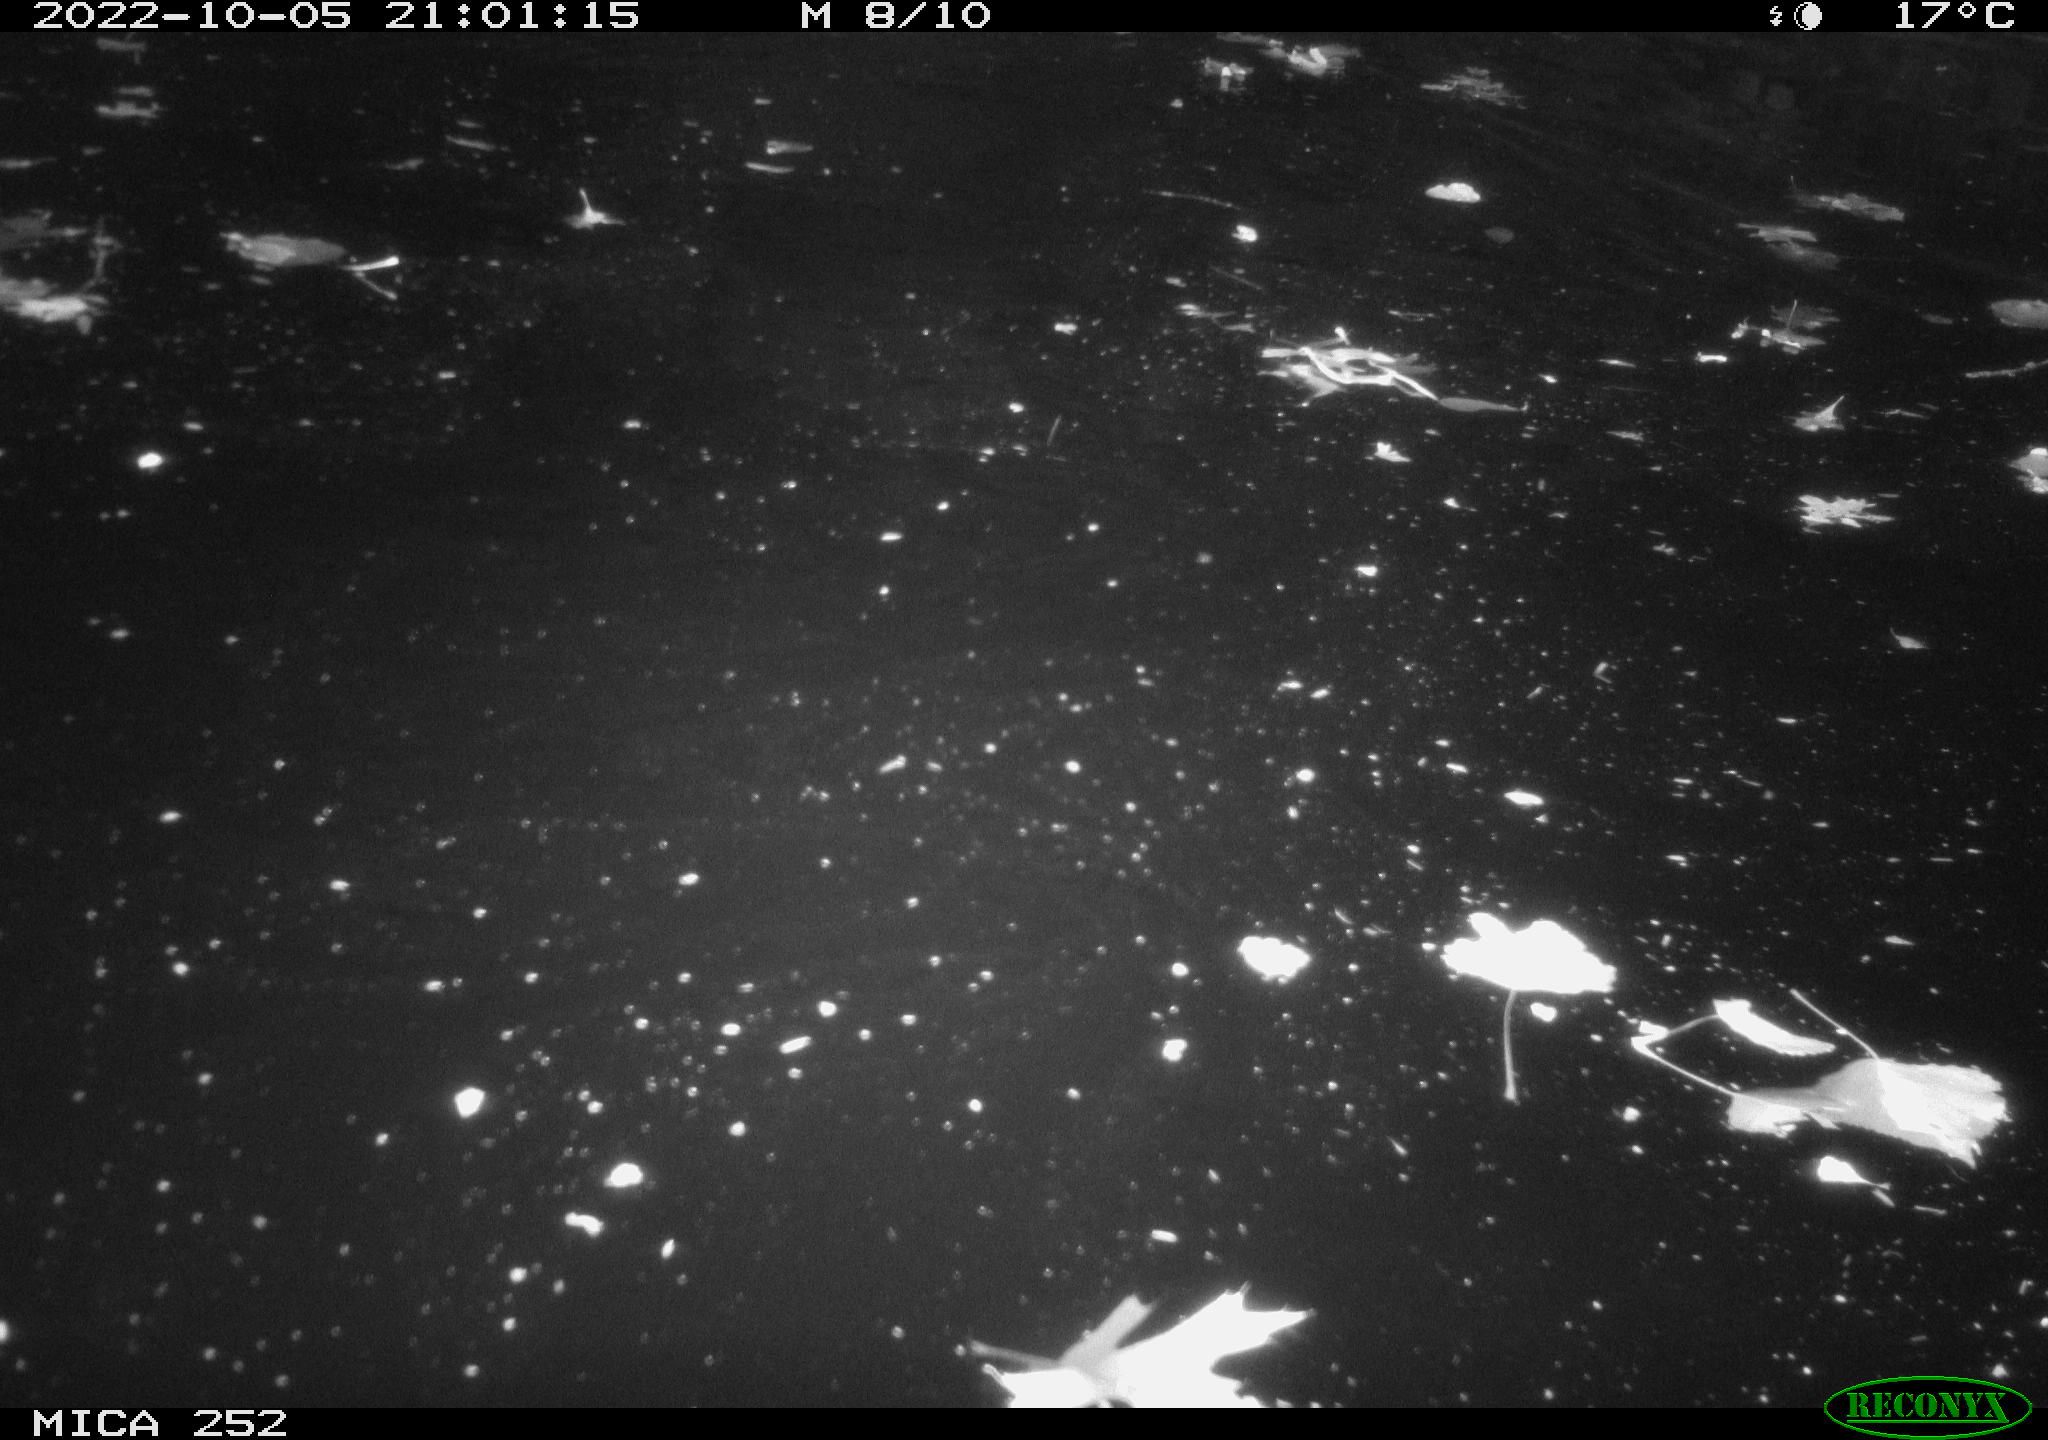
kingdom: Animalia
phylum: Chordata
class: Mammalia
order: Rodentia
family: Castoridae
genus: Castor
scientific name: Castor fiber
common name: Eurasian beaver
